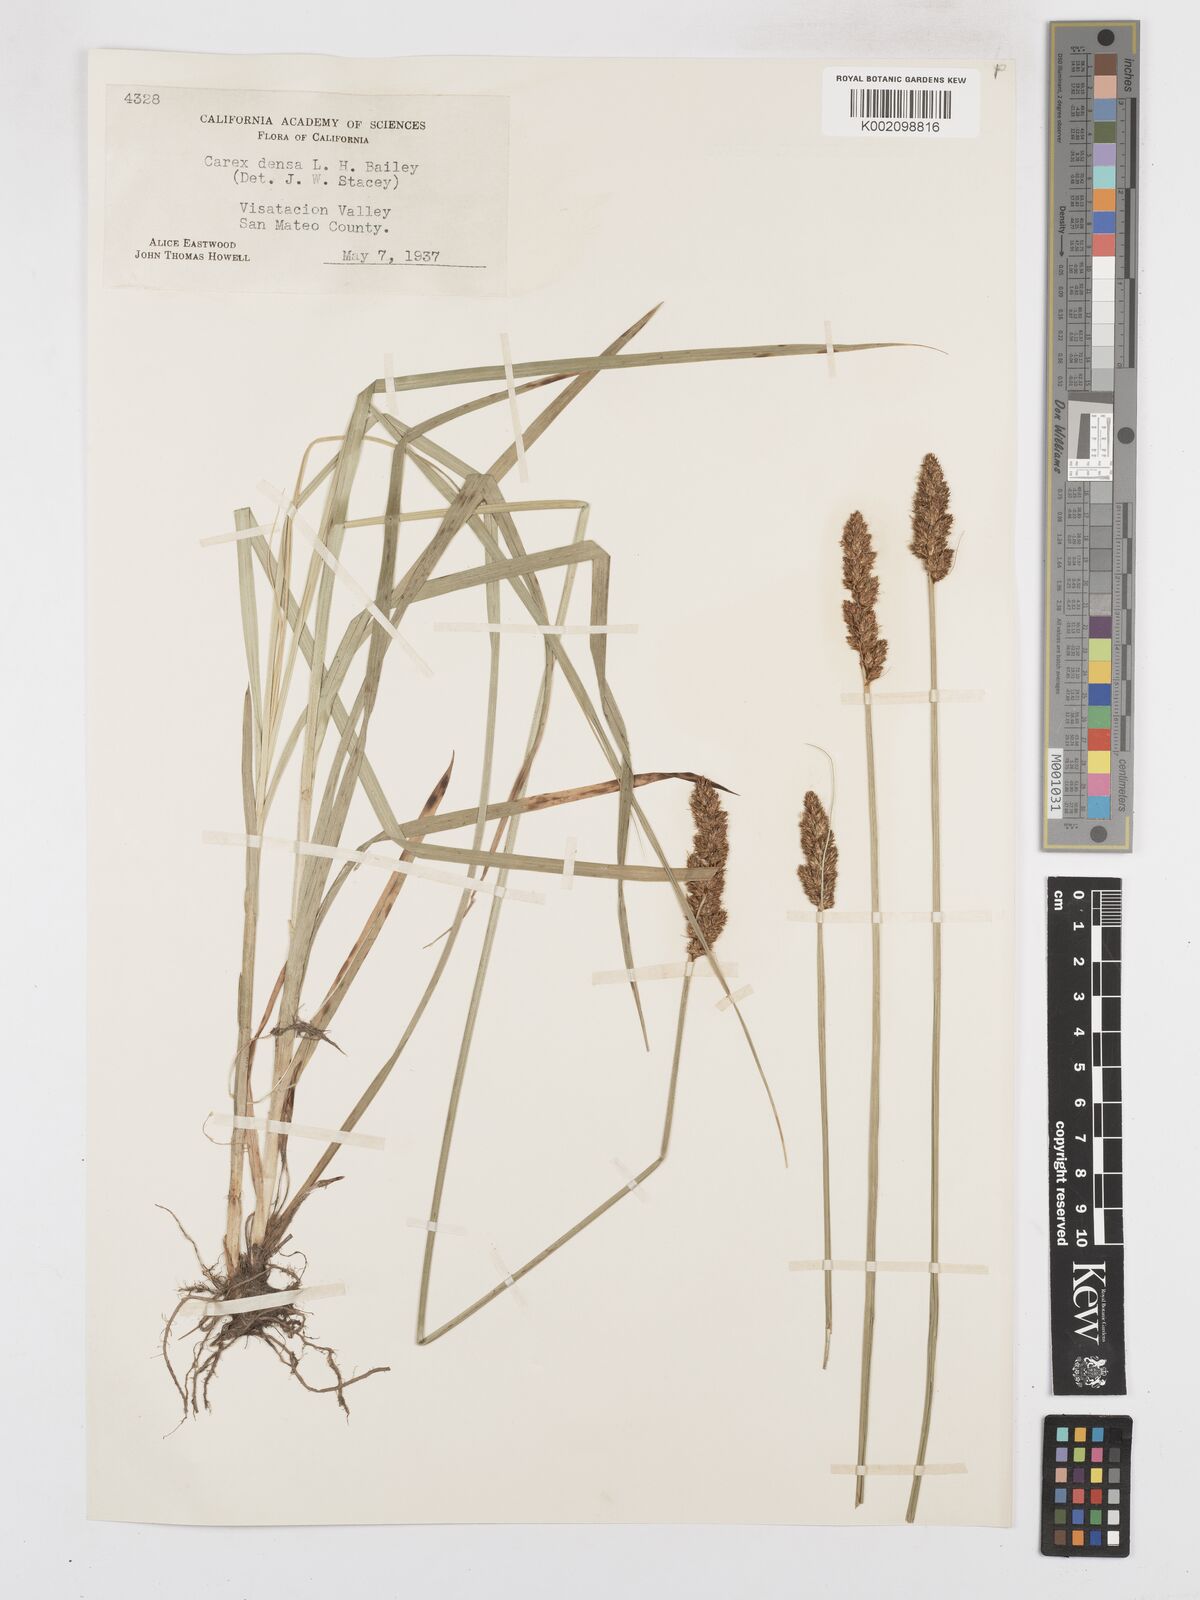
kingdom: Plantae
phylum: Tracheophyta
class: Liliopsida
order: Poales
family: Cyperaceae
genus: Carex
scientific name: Carex densa
